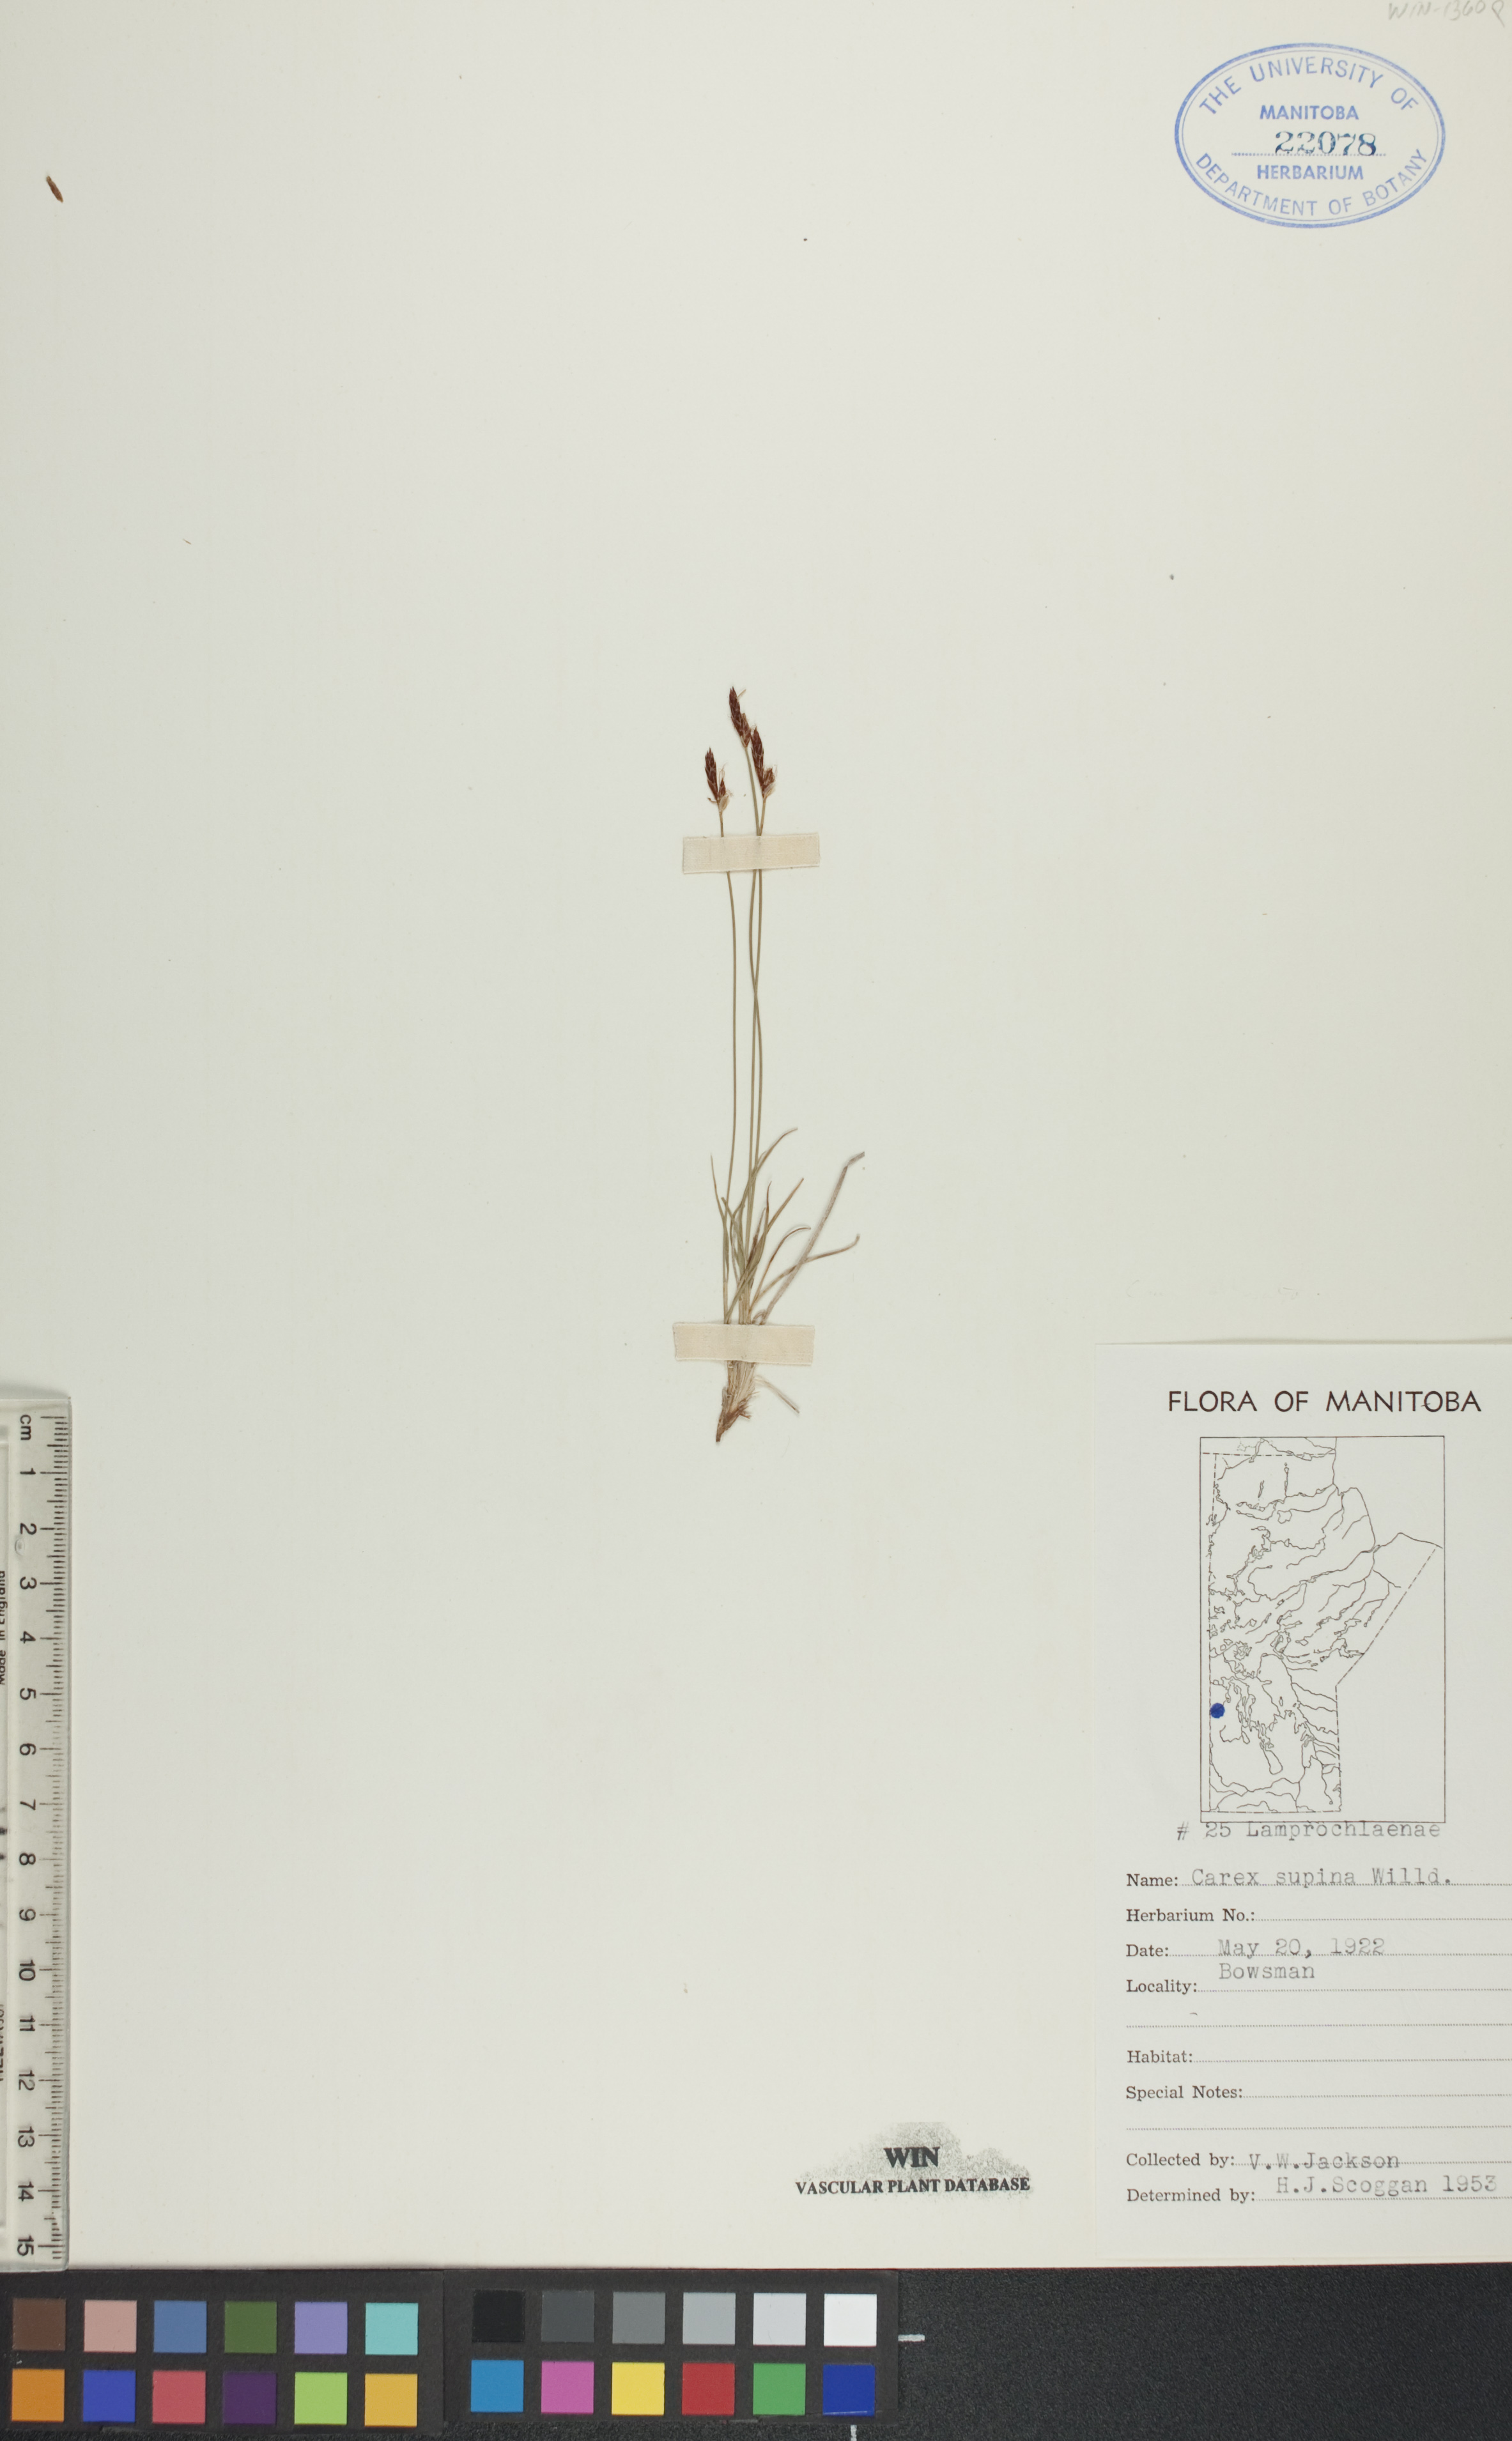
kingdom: Plantae
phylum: Tracheophyta
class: Liliopsida
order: Poales
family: Cyperaceae
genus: Carex
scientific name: Carex supina
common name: Lying-back sedge
